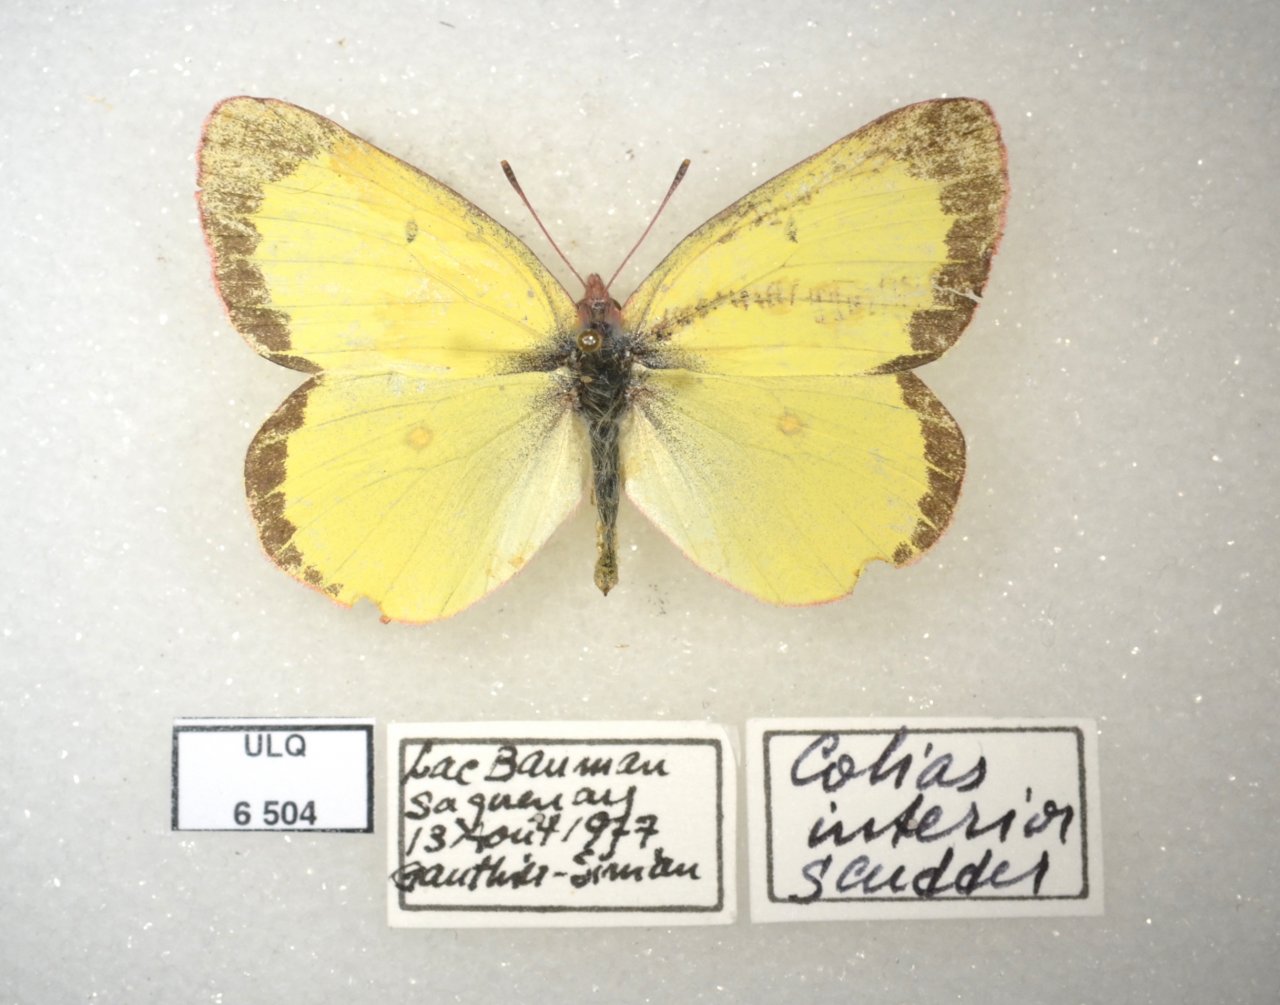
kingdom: Animalia
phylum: Arthropoda
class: Insecta
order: Lepidoptera
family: Pieridae
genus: Colias
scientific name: Colias interior
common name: Pink-edged Sulphur
